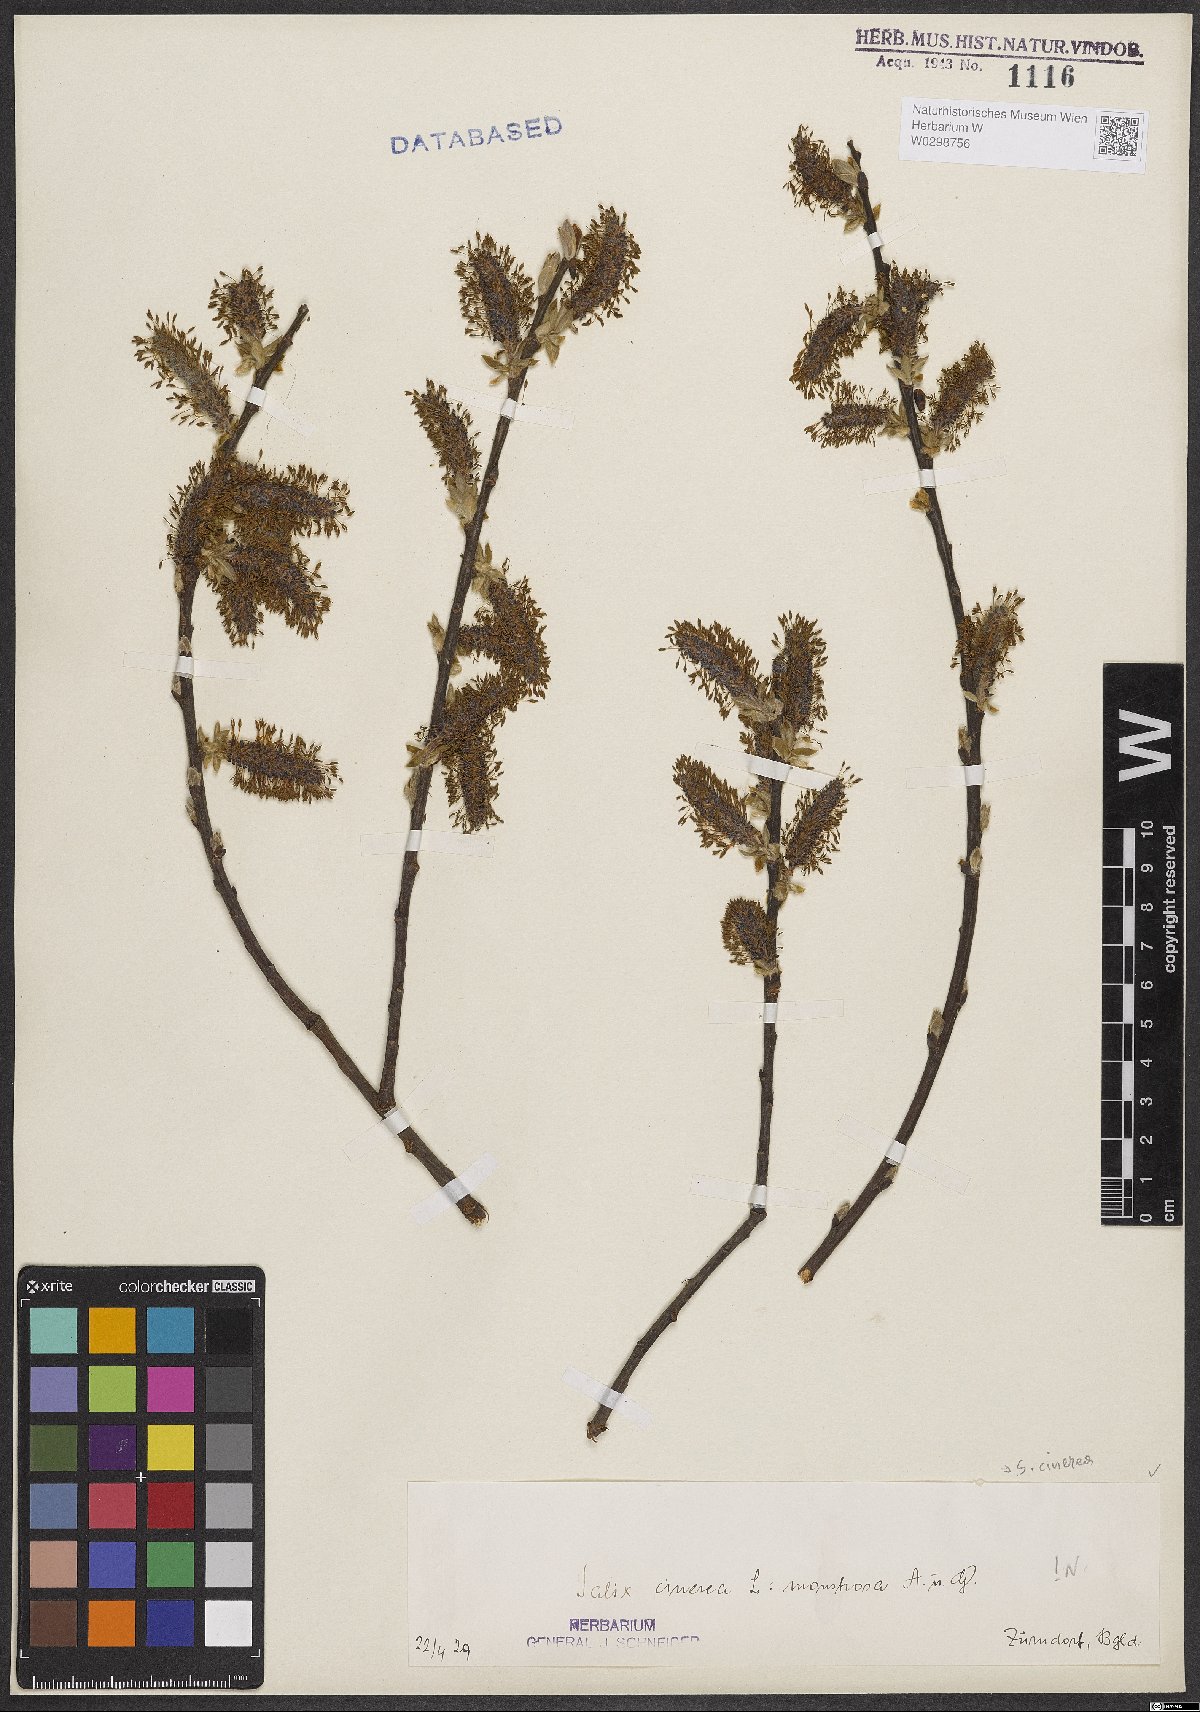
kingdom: Plantae
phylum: Tracheophyta
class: Magnoliopsida
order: Malpighiales
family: Salicaceae
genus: Salix
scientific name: Salix cinerea
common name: Common sallow
